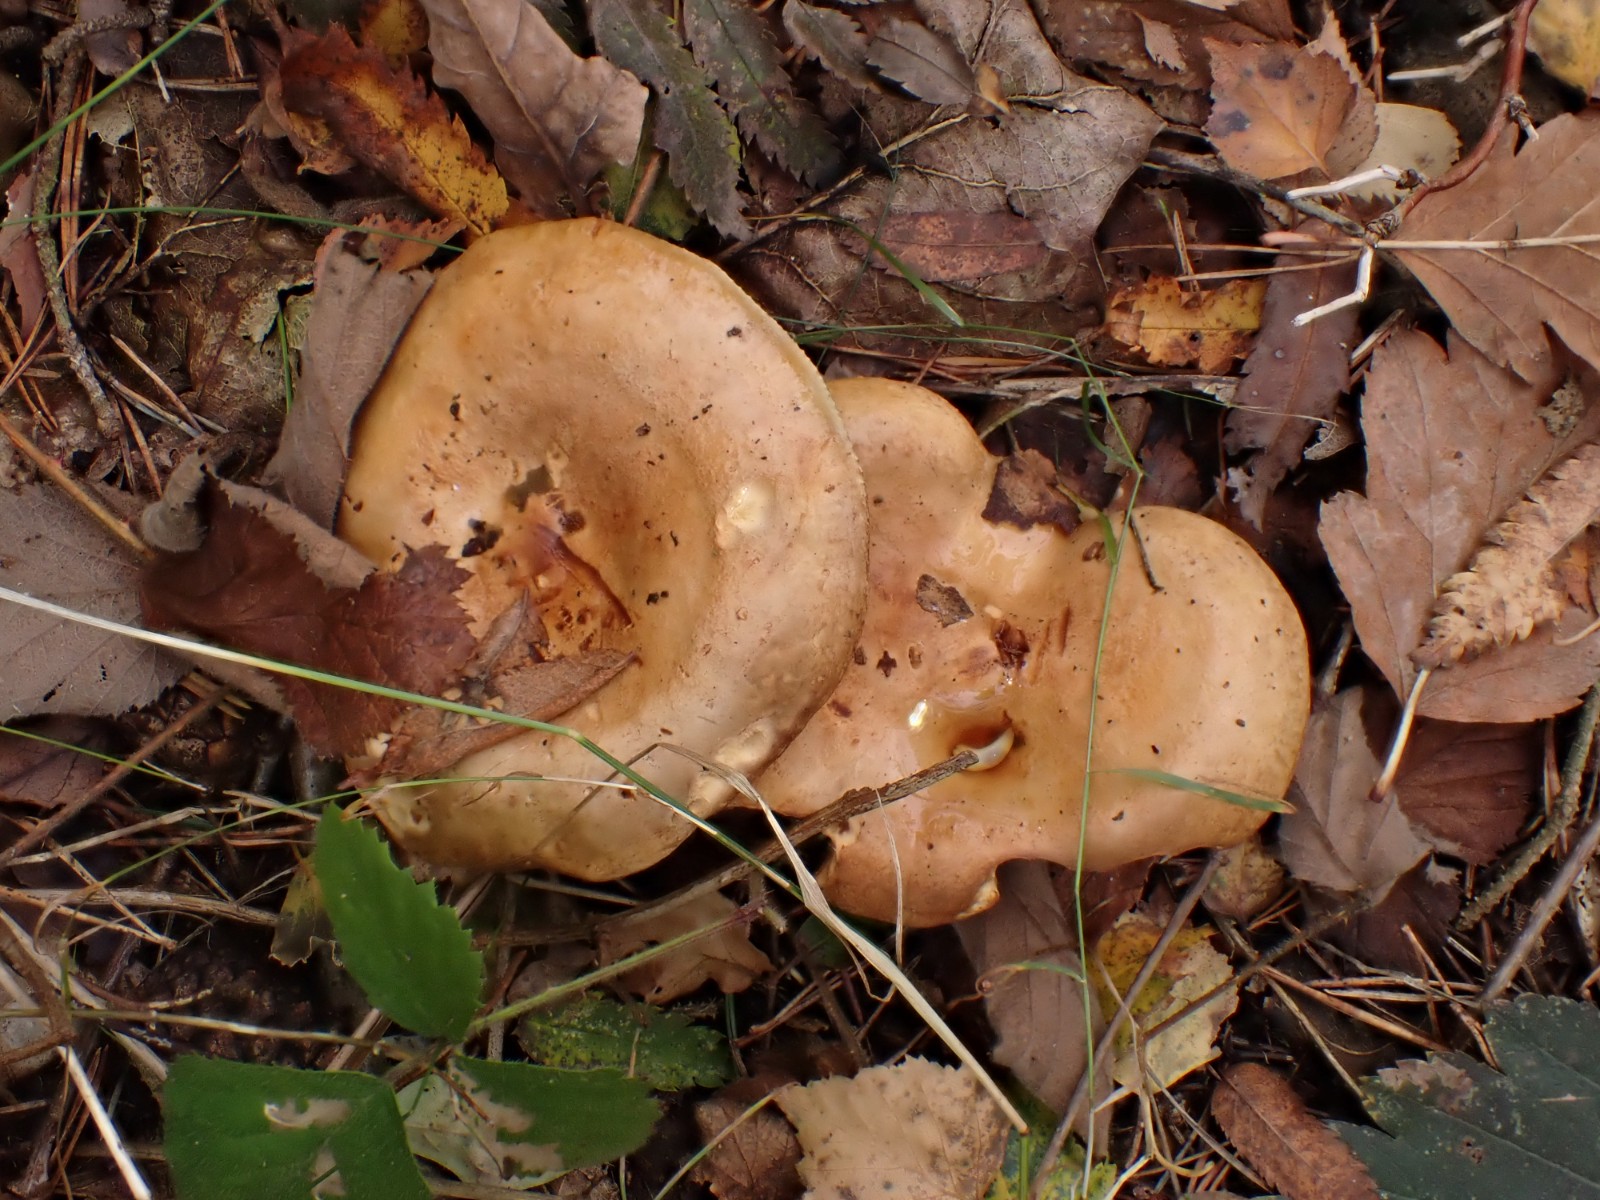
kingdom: Fungi
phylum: Basidiomycota
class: Agaricomycetes
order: Boletales
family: Paxillaceae
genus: Paxillus
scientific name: Paxillus involutus
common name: almindelig netbladhat
